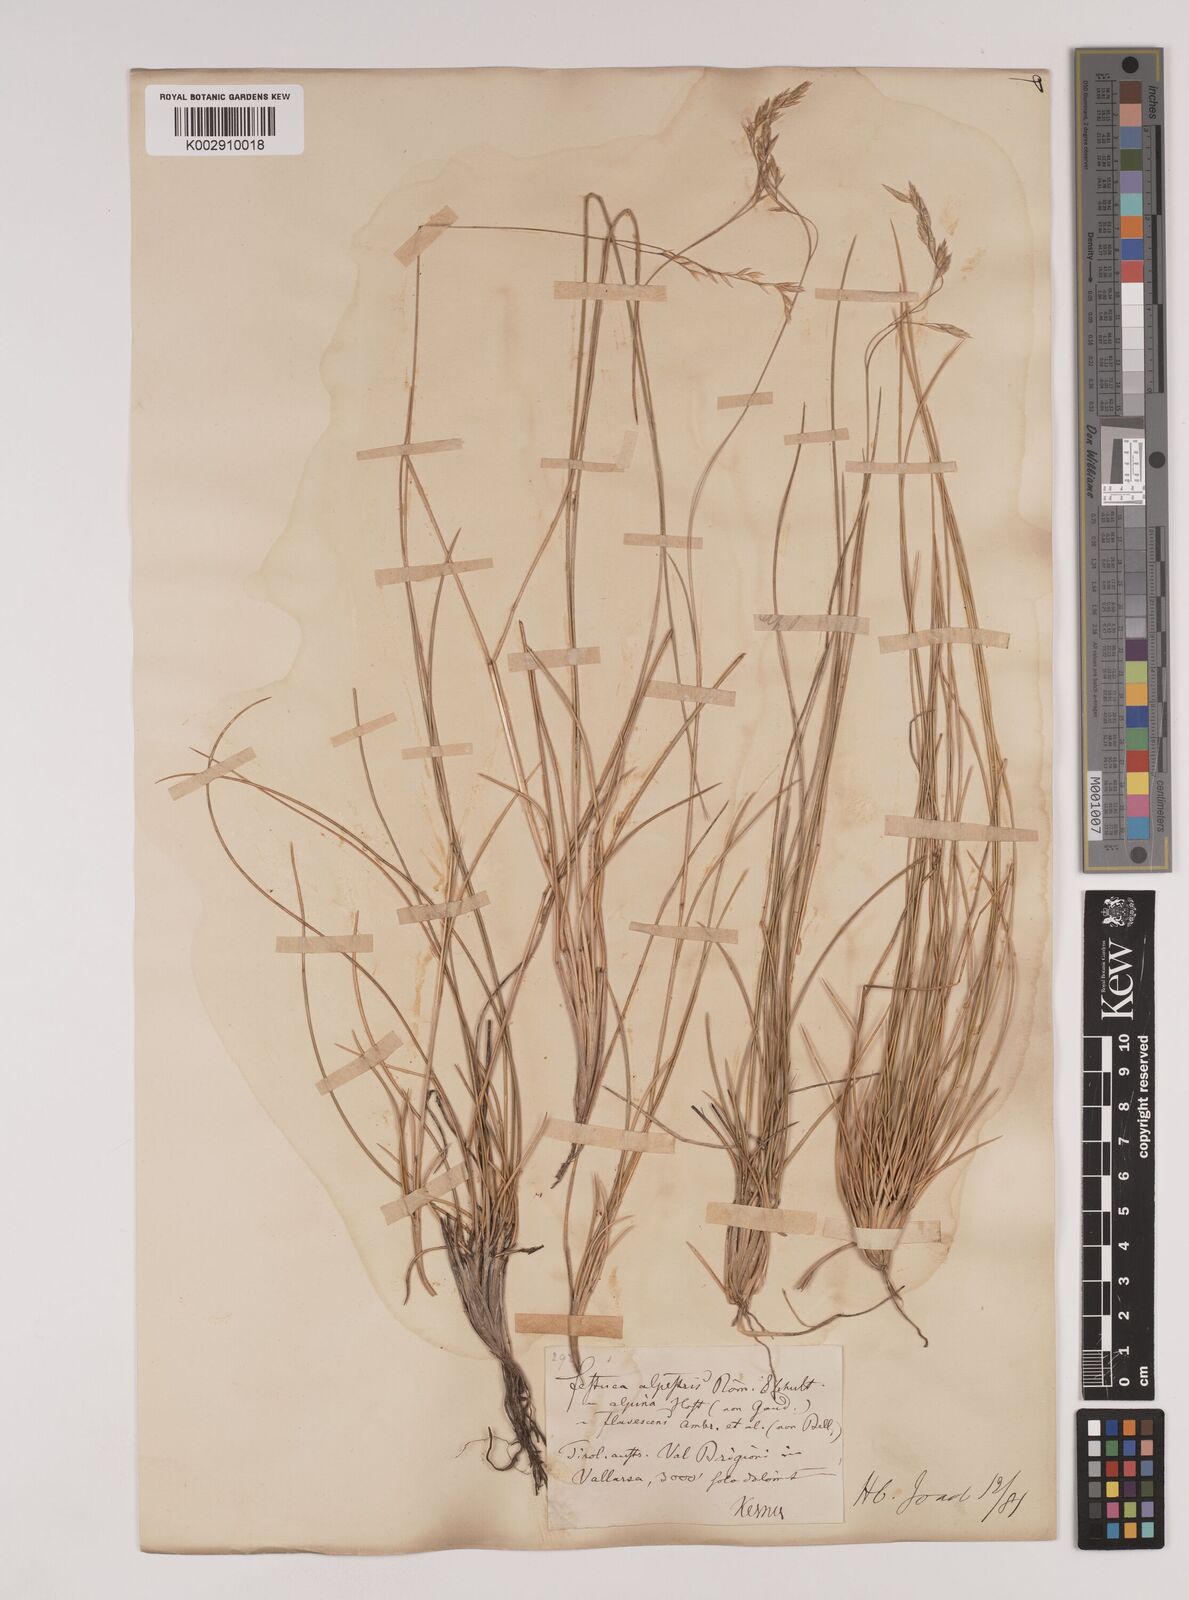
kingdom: Plantae
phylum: Tracheophyta
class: Liliopsida
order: Poales
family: Poaceae
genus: Festuca
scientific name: Festuca alpestris
